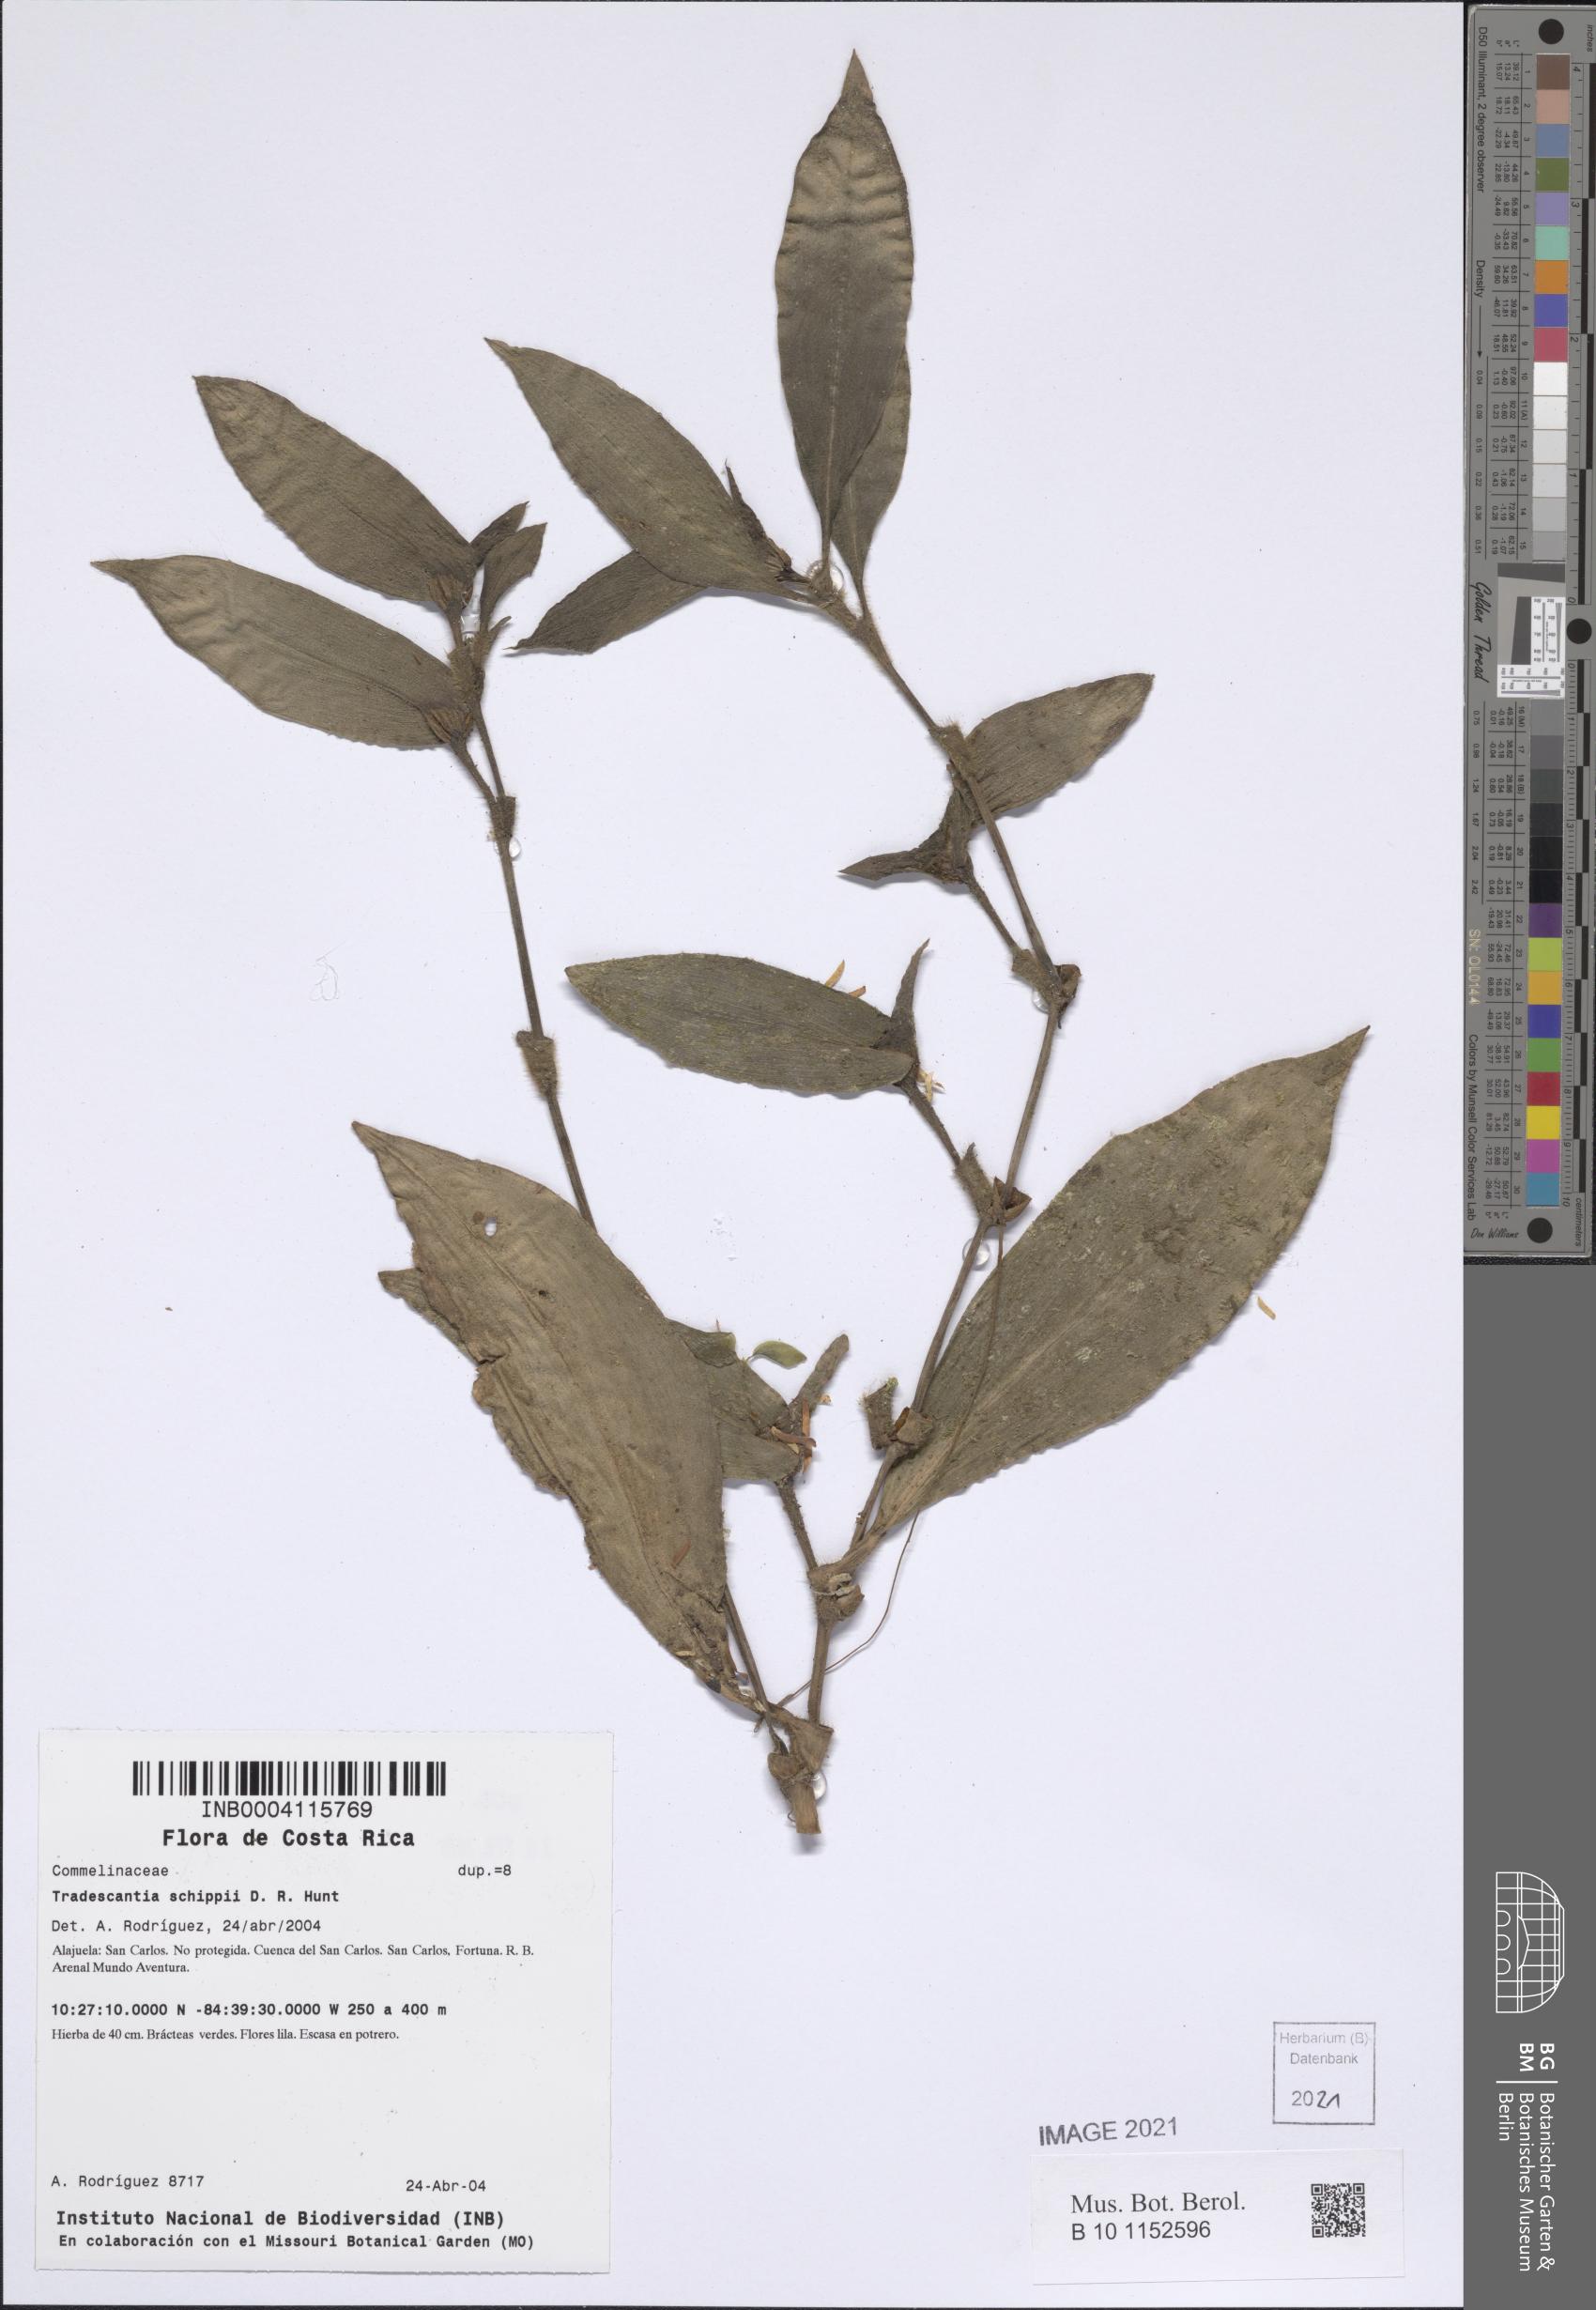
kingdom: Plantae
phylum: Tracheophyta
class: Liliopsida
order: Commelinales
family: Commelinaceae
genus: Tradescantia
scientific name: Tradescantia schippii
